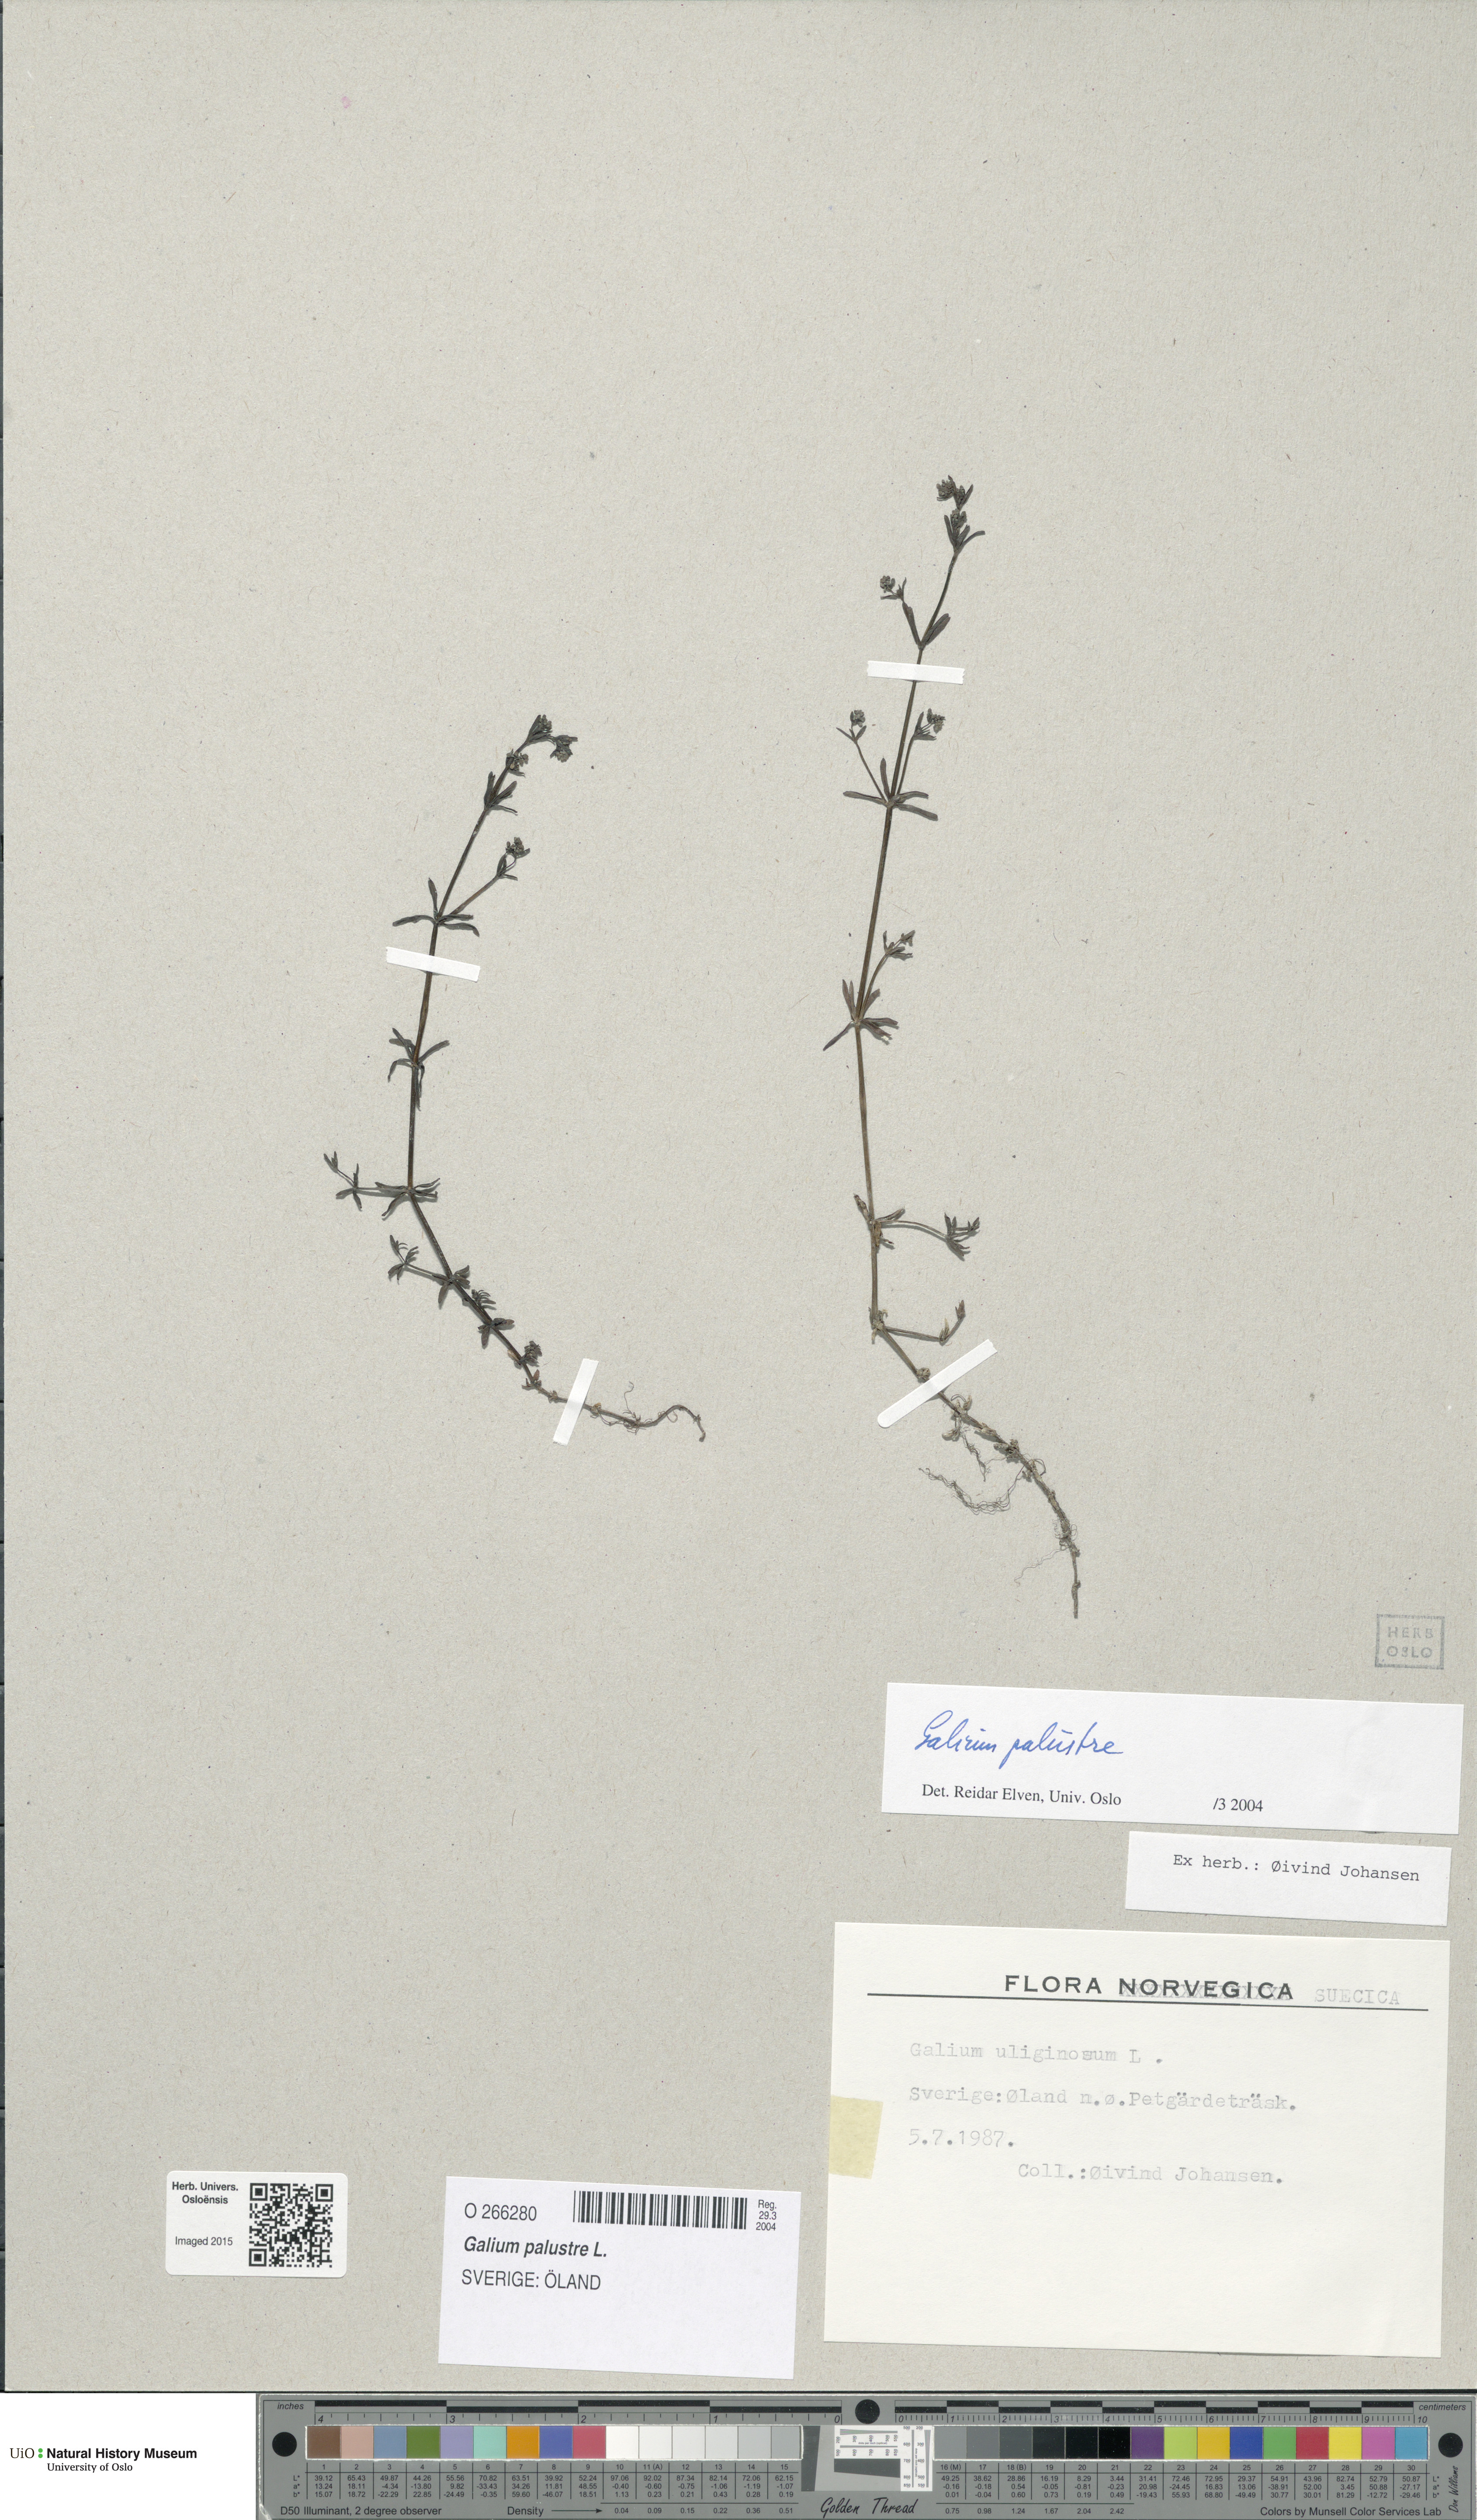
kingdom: Plantae
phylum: Tracheophyta
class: Magnoliopsida
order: Gentianales
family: Rubiaceae
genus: Galium
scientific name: Galium palustre
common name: Common marsh-bedstraw
